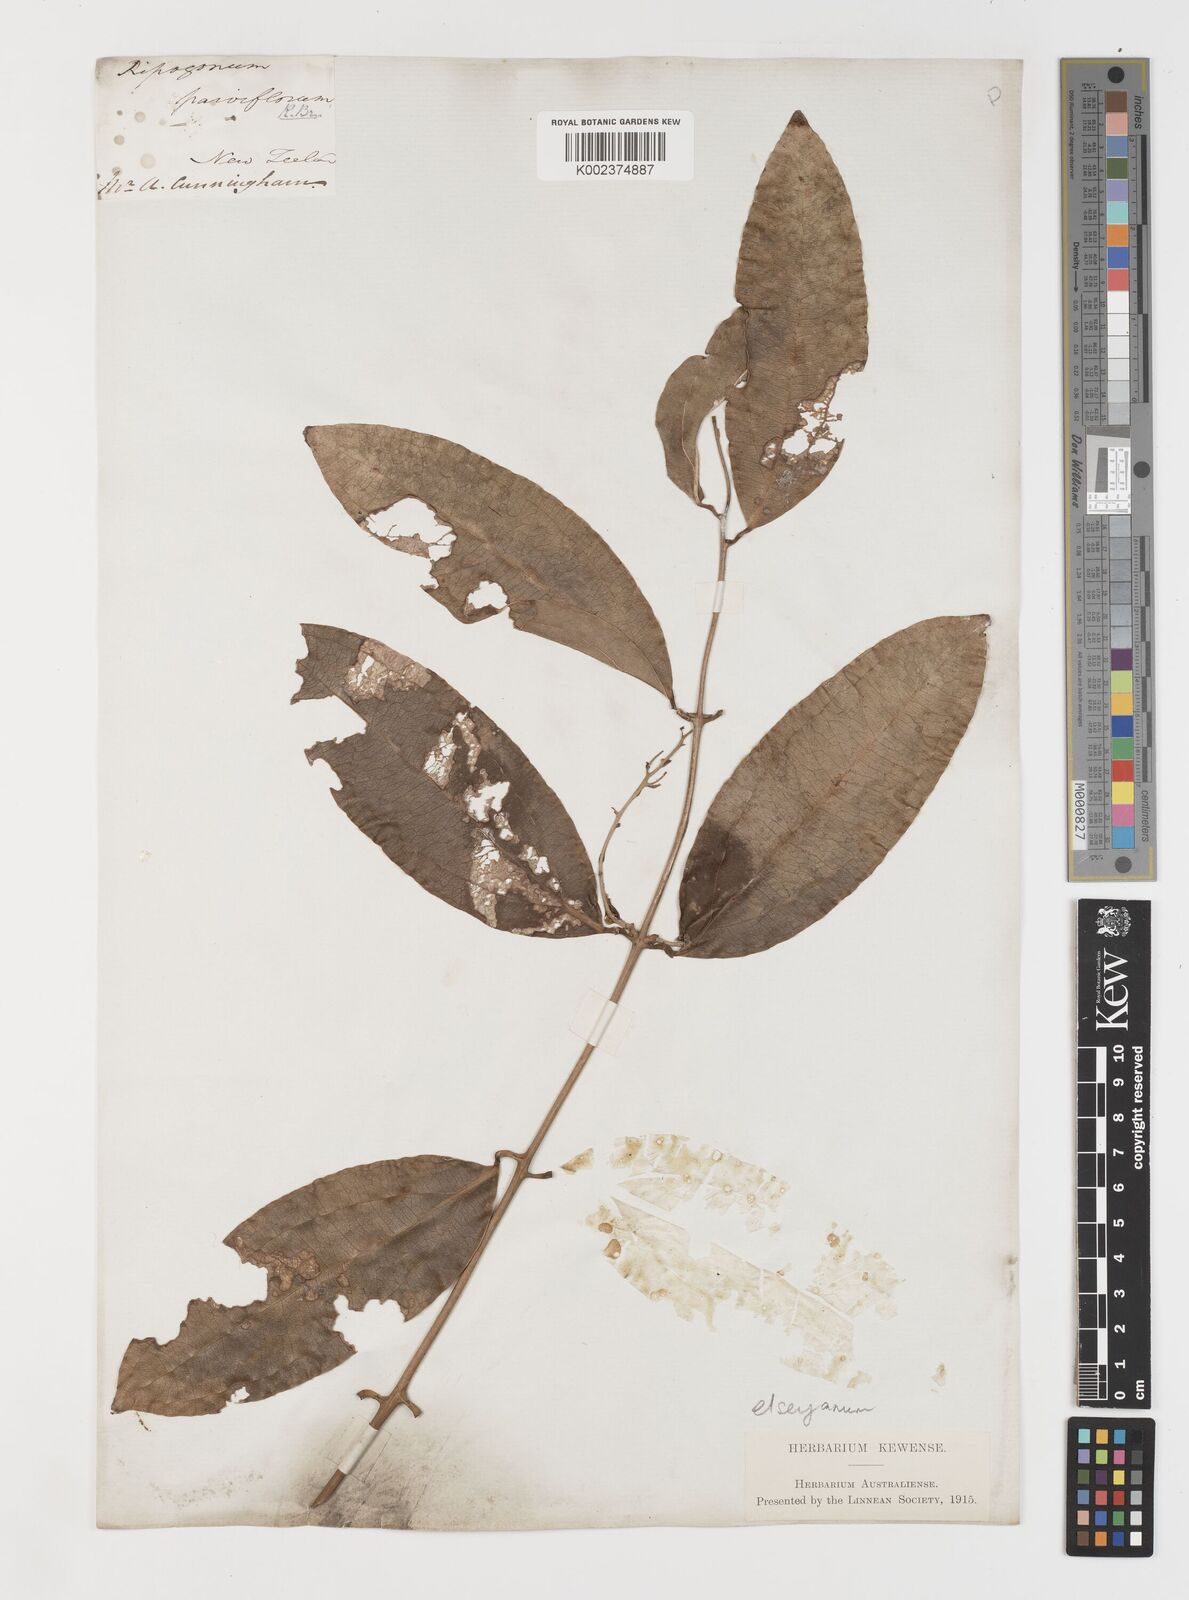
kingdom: Plantae
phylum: Tracheophyta
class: Liliopsida
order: Liliales
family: Ripogonaceae
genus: Ripogonum
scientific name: Ripogonum elseyanum
